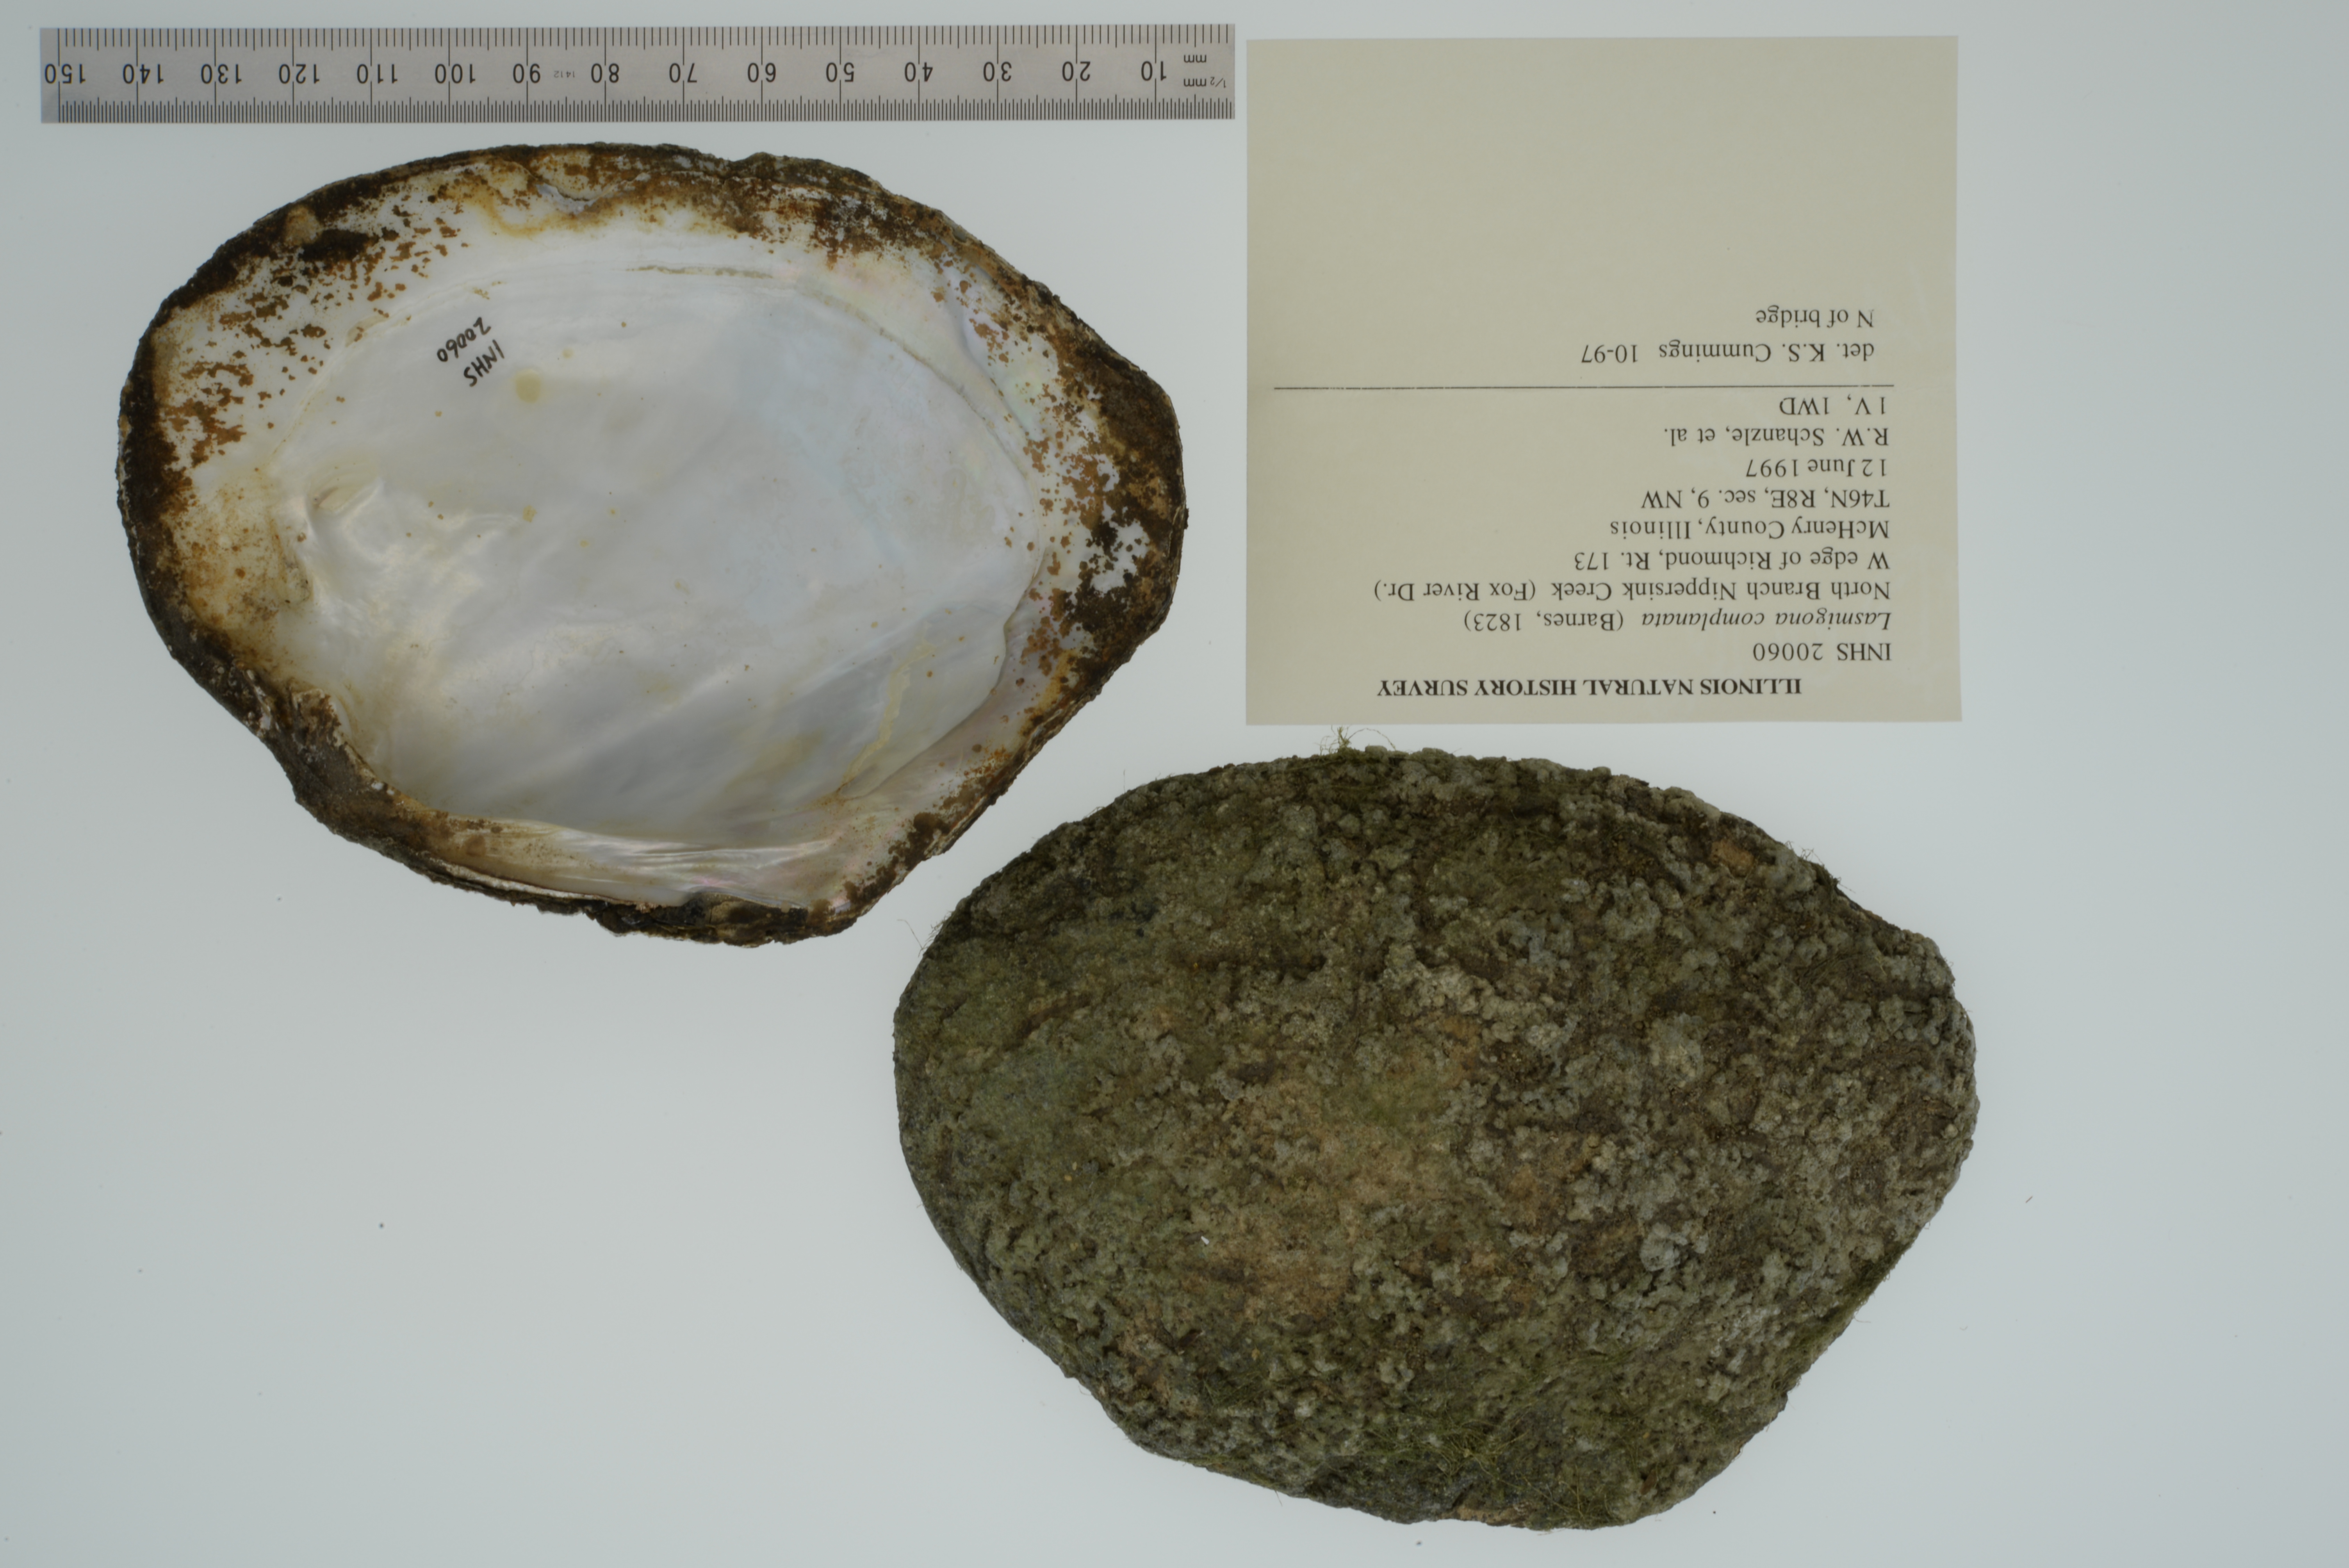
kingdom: Animalia
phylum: Mollusca
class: Bivalvia
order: Unionida
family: Unionidae
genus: Lasmigona
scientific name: Lasmigona complanata
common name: White heelsplitter
